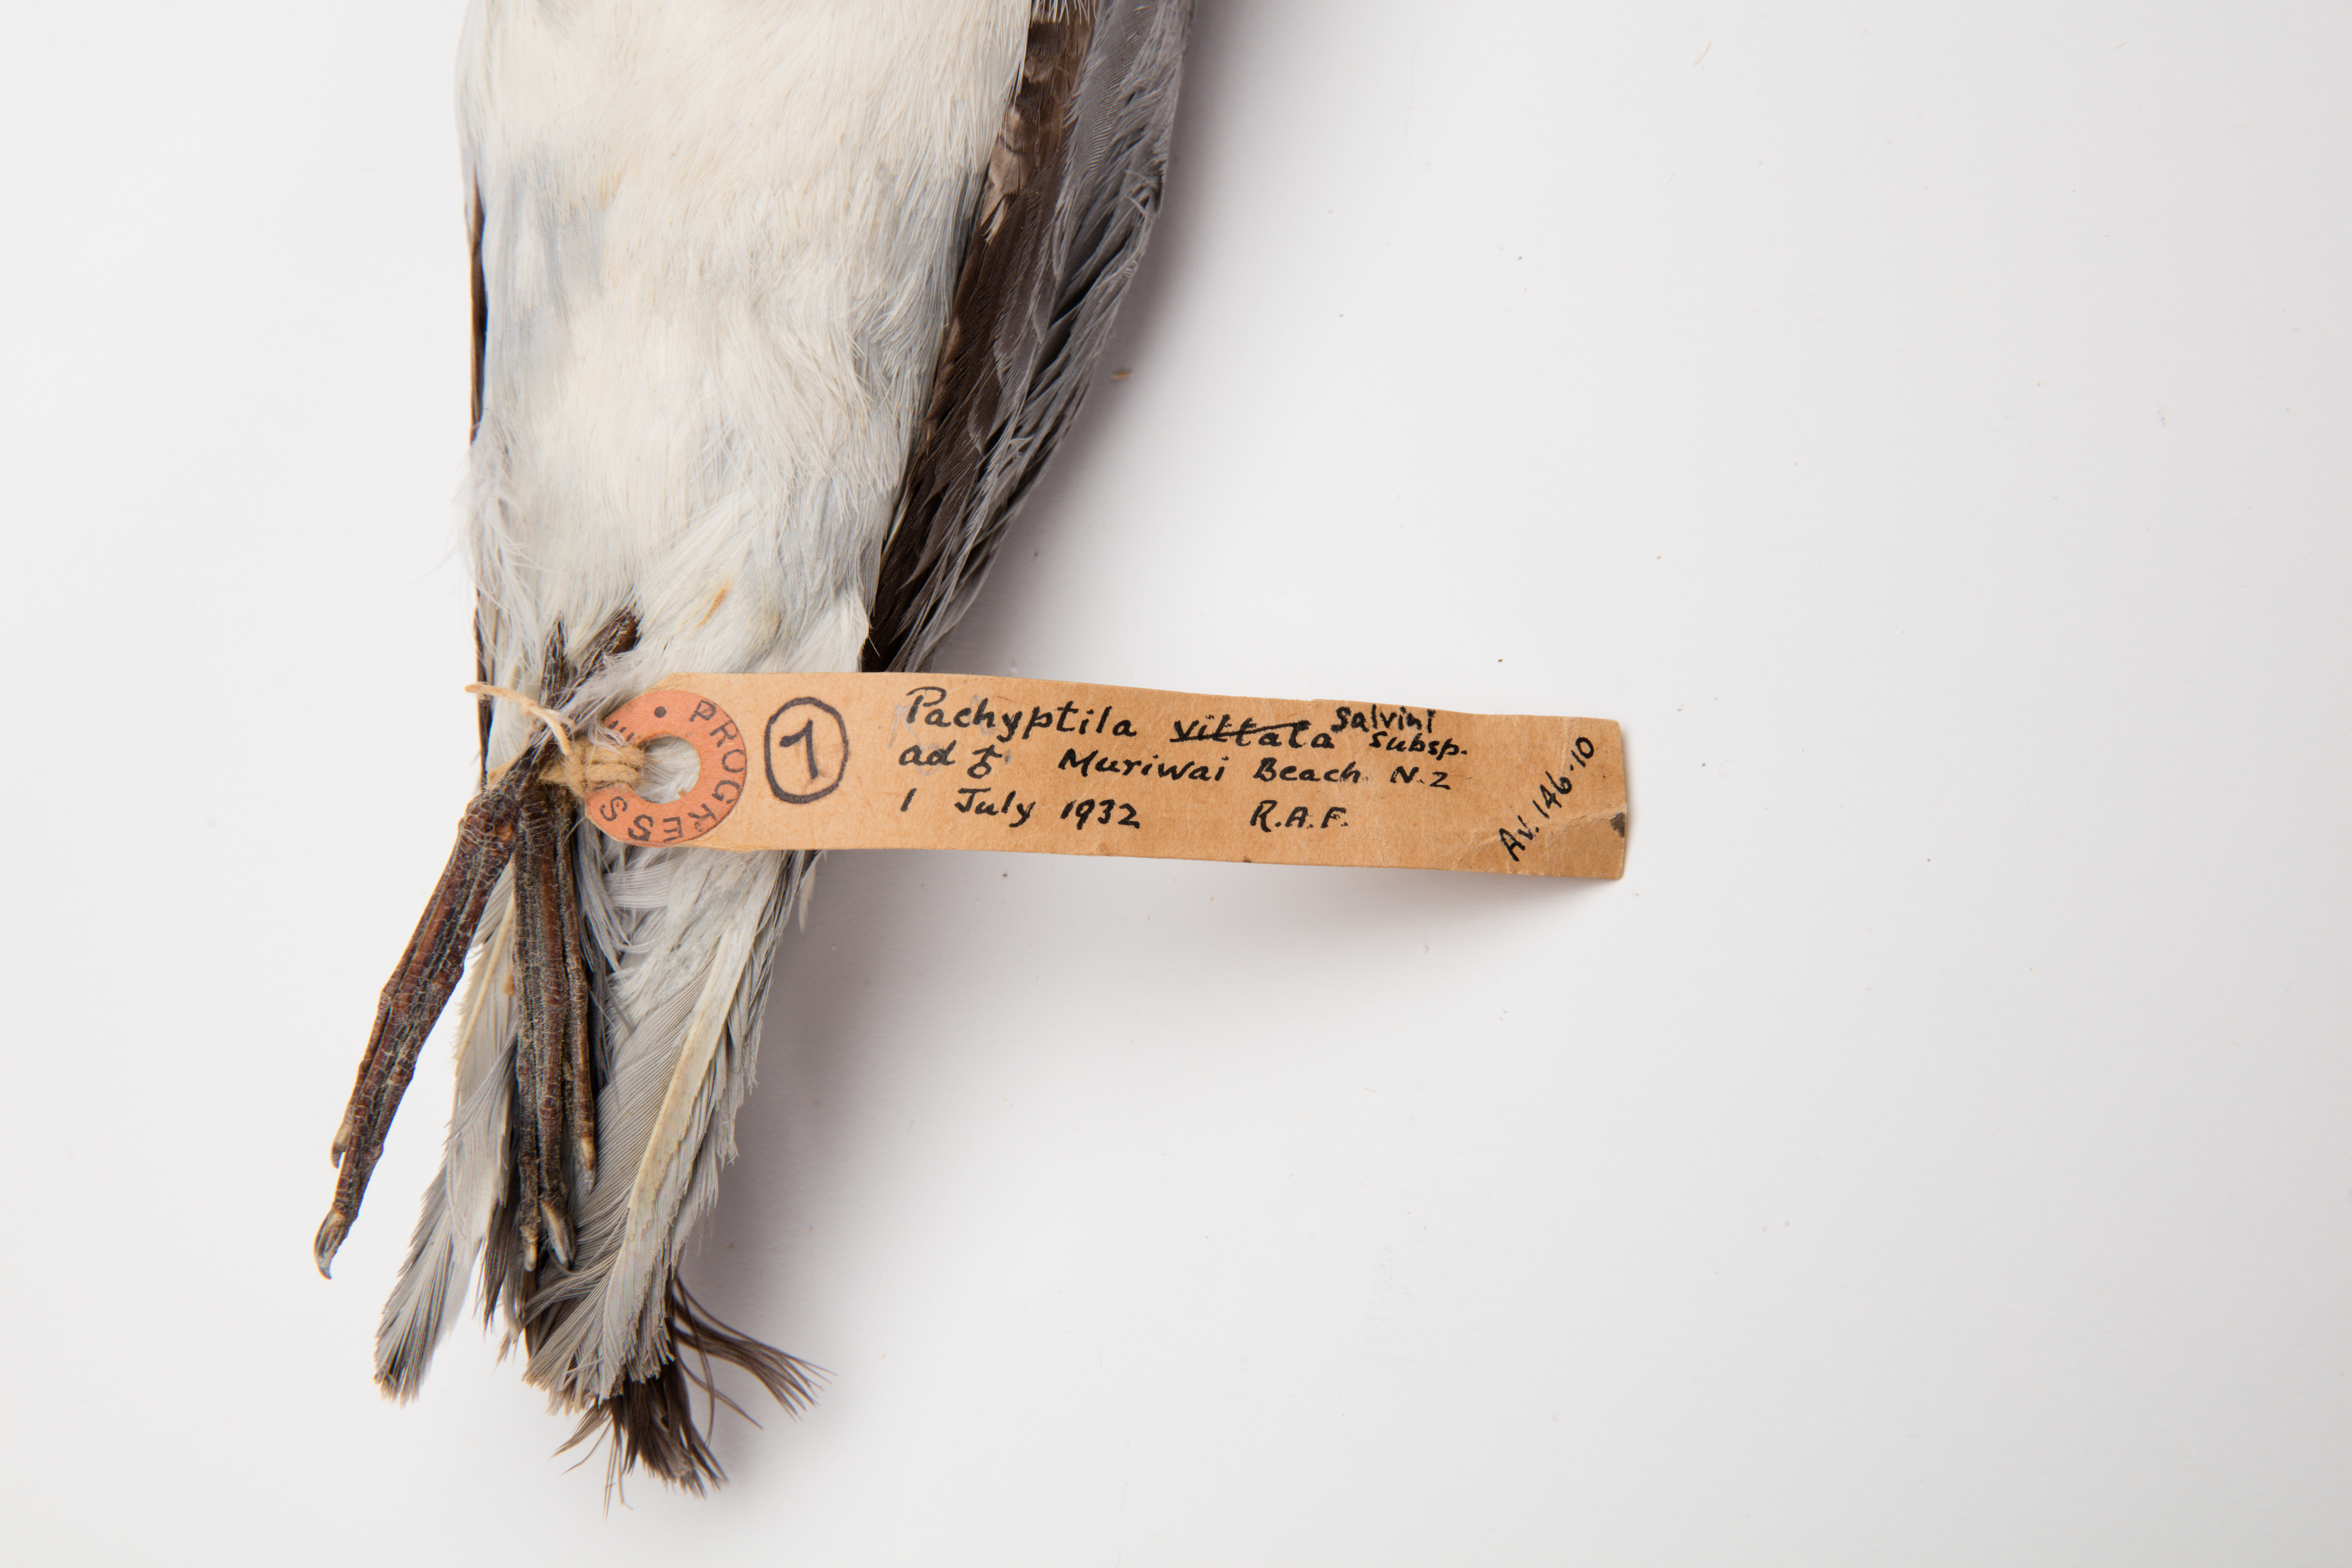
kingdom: Animalia
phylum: Chordata
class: Aves
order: Procellariiformes
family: Procellariidae
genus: Pachyptila
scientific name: Pachyptila salvini
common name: Salvin's prion
